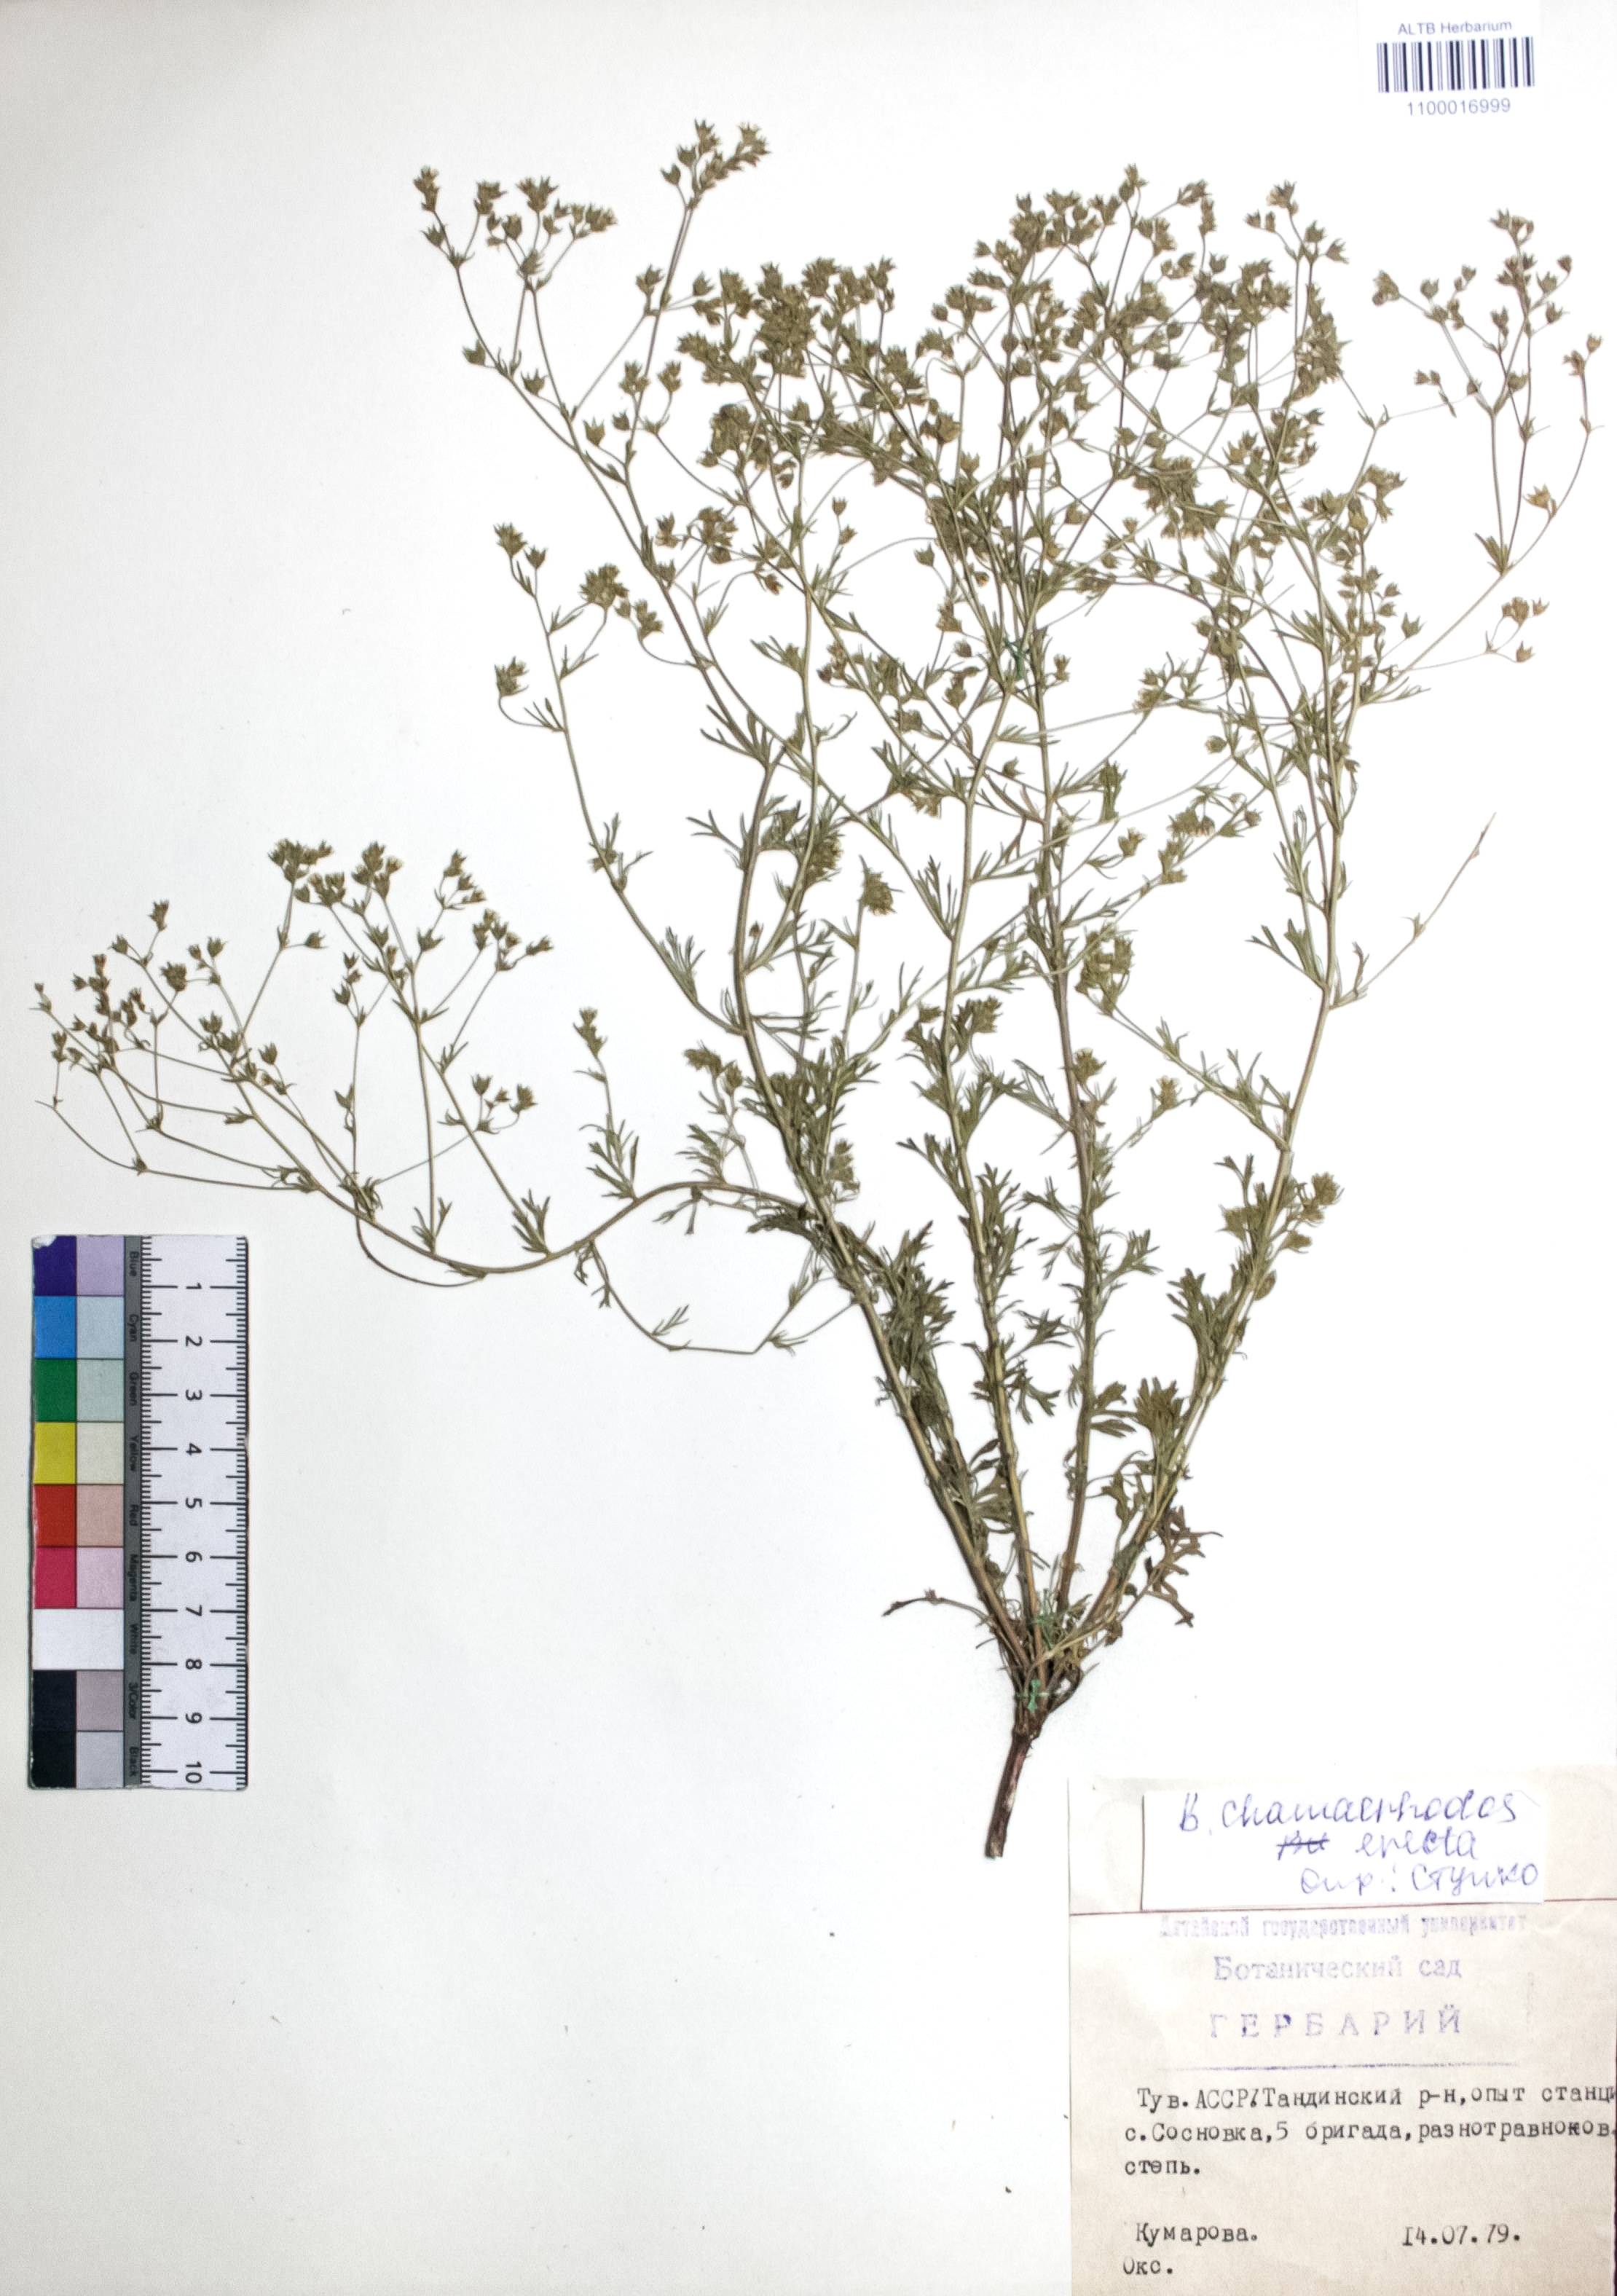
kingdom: Plantae
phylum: Tracheophyta
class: Magnoliopsida
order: Rosales
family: Rosaceae
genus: Chamaerhodos
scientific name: Chamaerhodos erecta
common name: American chamaerhodos
